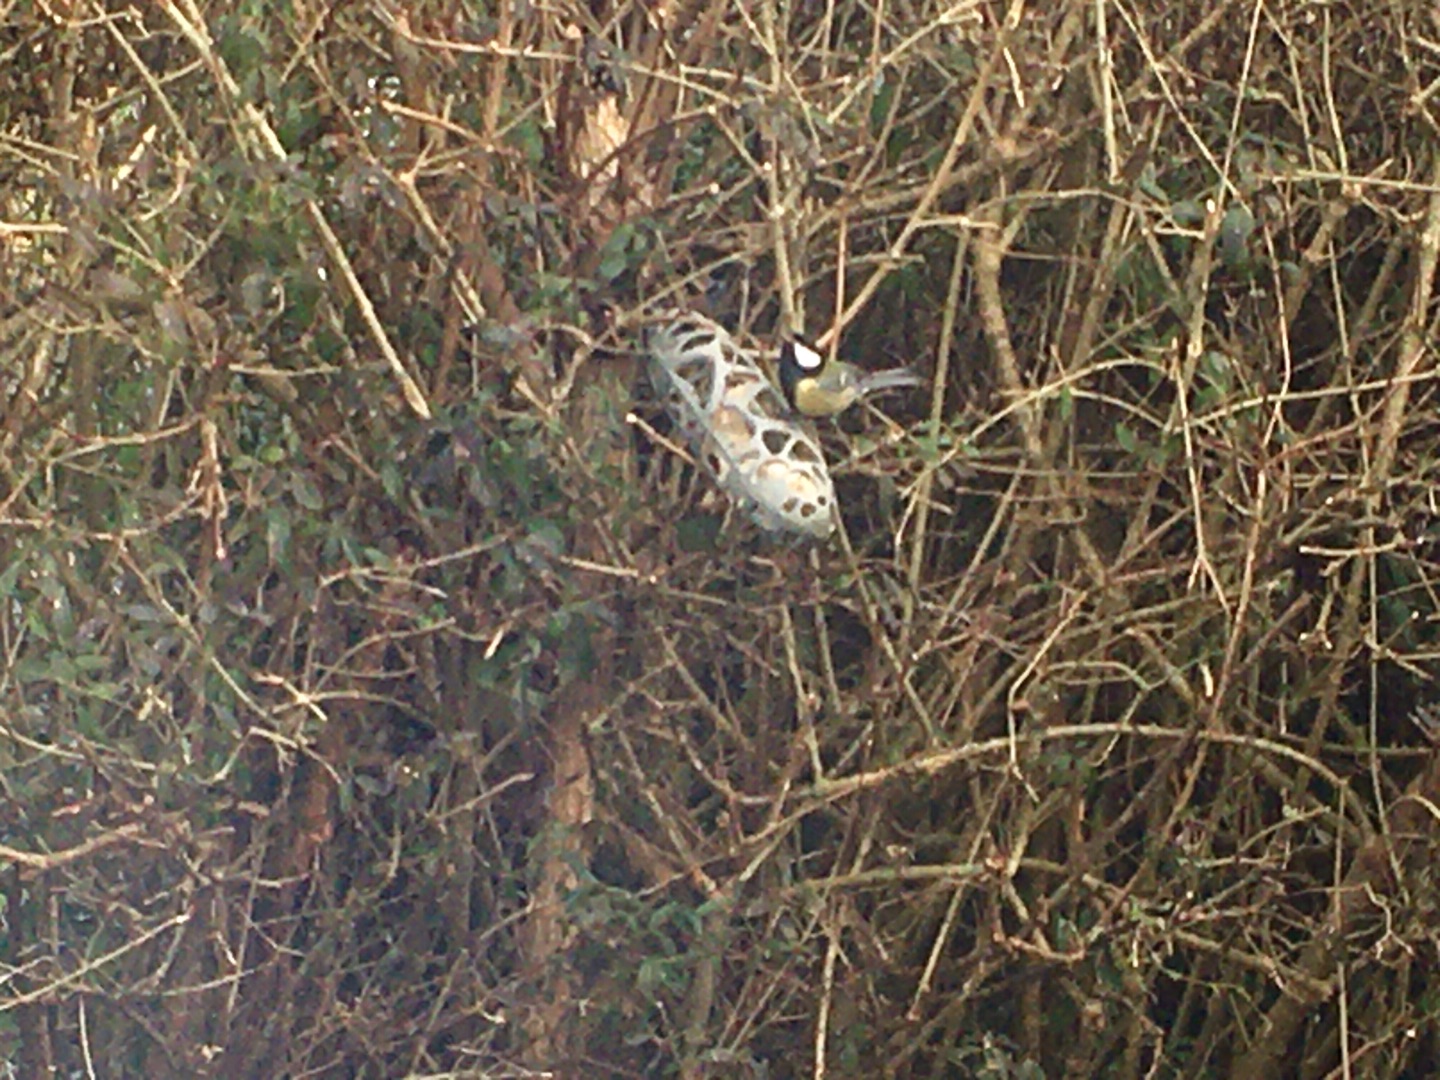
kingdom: Animalia
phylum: Chordata
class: Aves
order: Passeriformes
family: Paridae
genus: Parus
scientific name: Parus major
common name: Musvit
